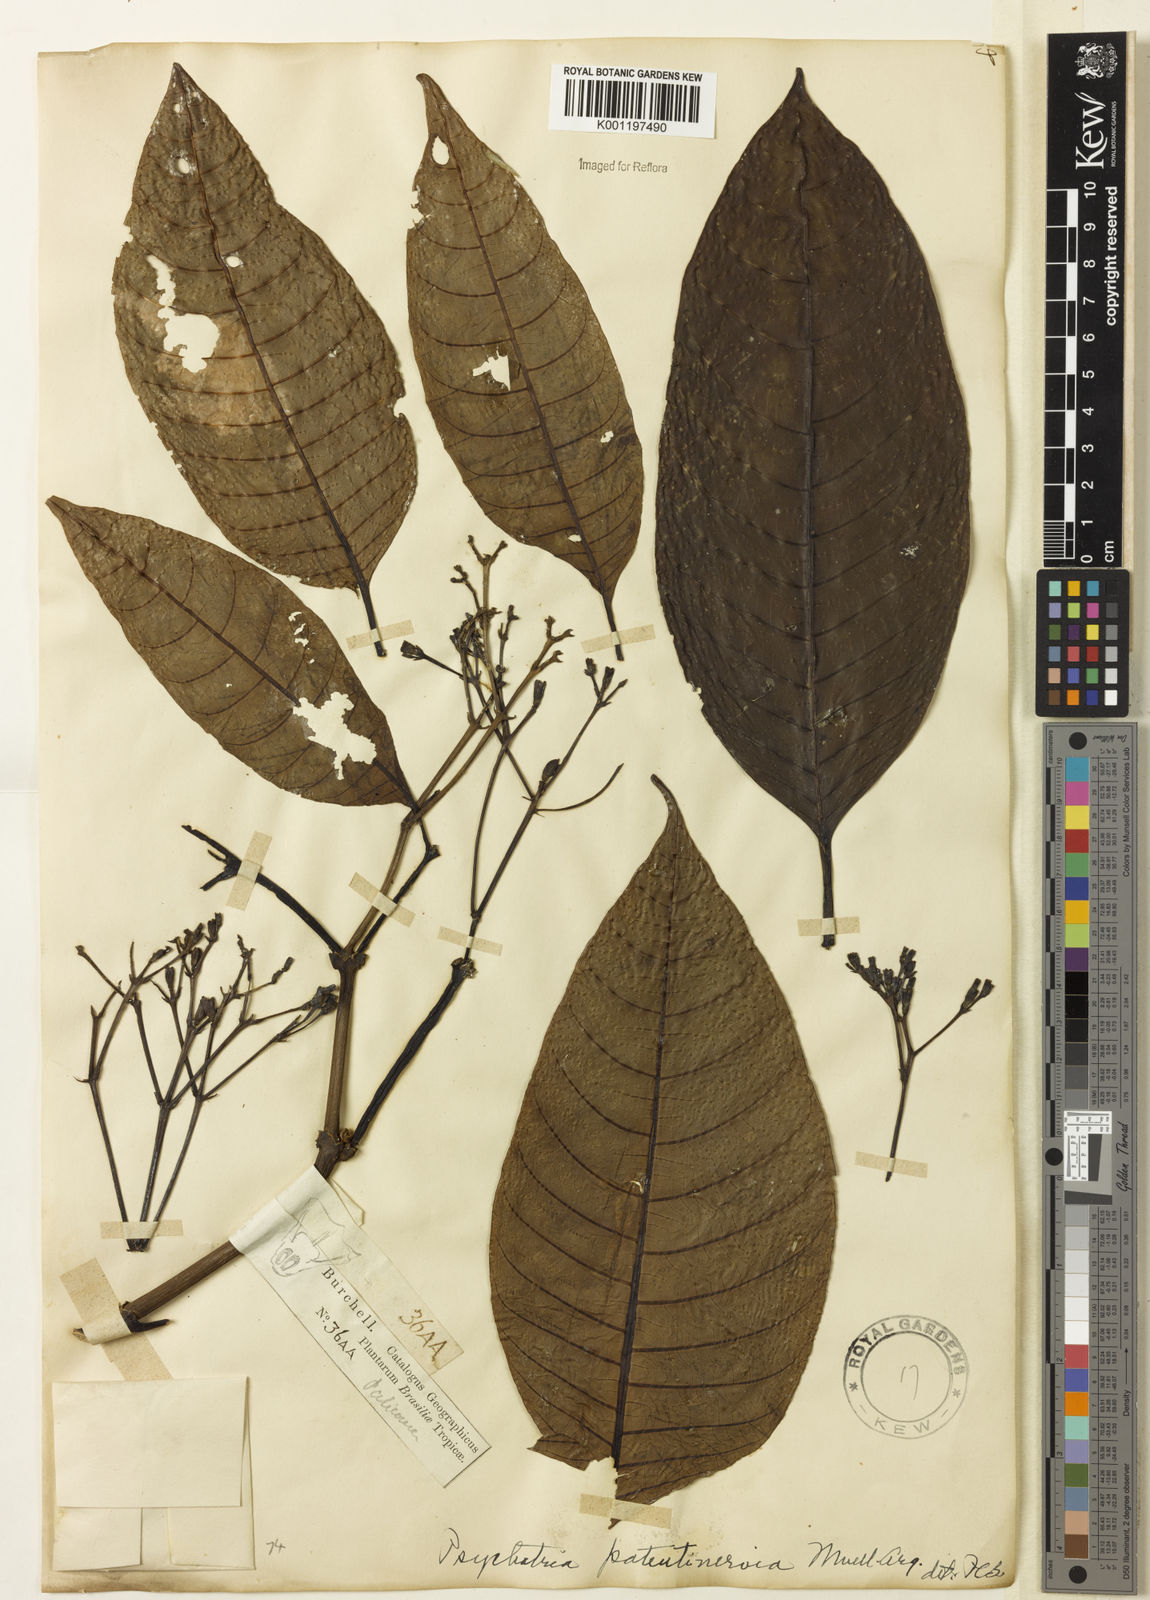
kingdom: Plantae
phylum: Tracheophyta
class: Magnoliopsida
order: Gentianales
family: Rubiaceae
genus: Psychotria
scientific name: Psychotria
